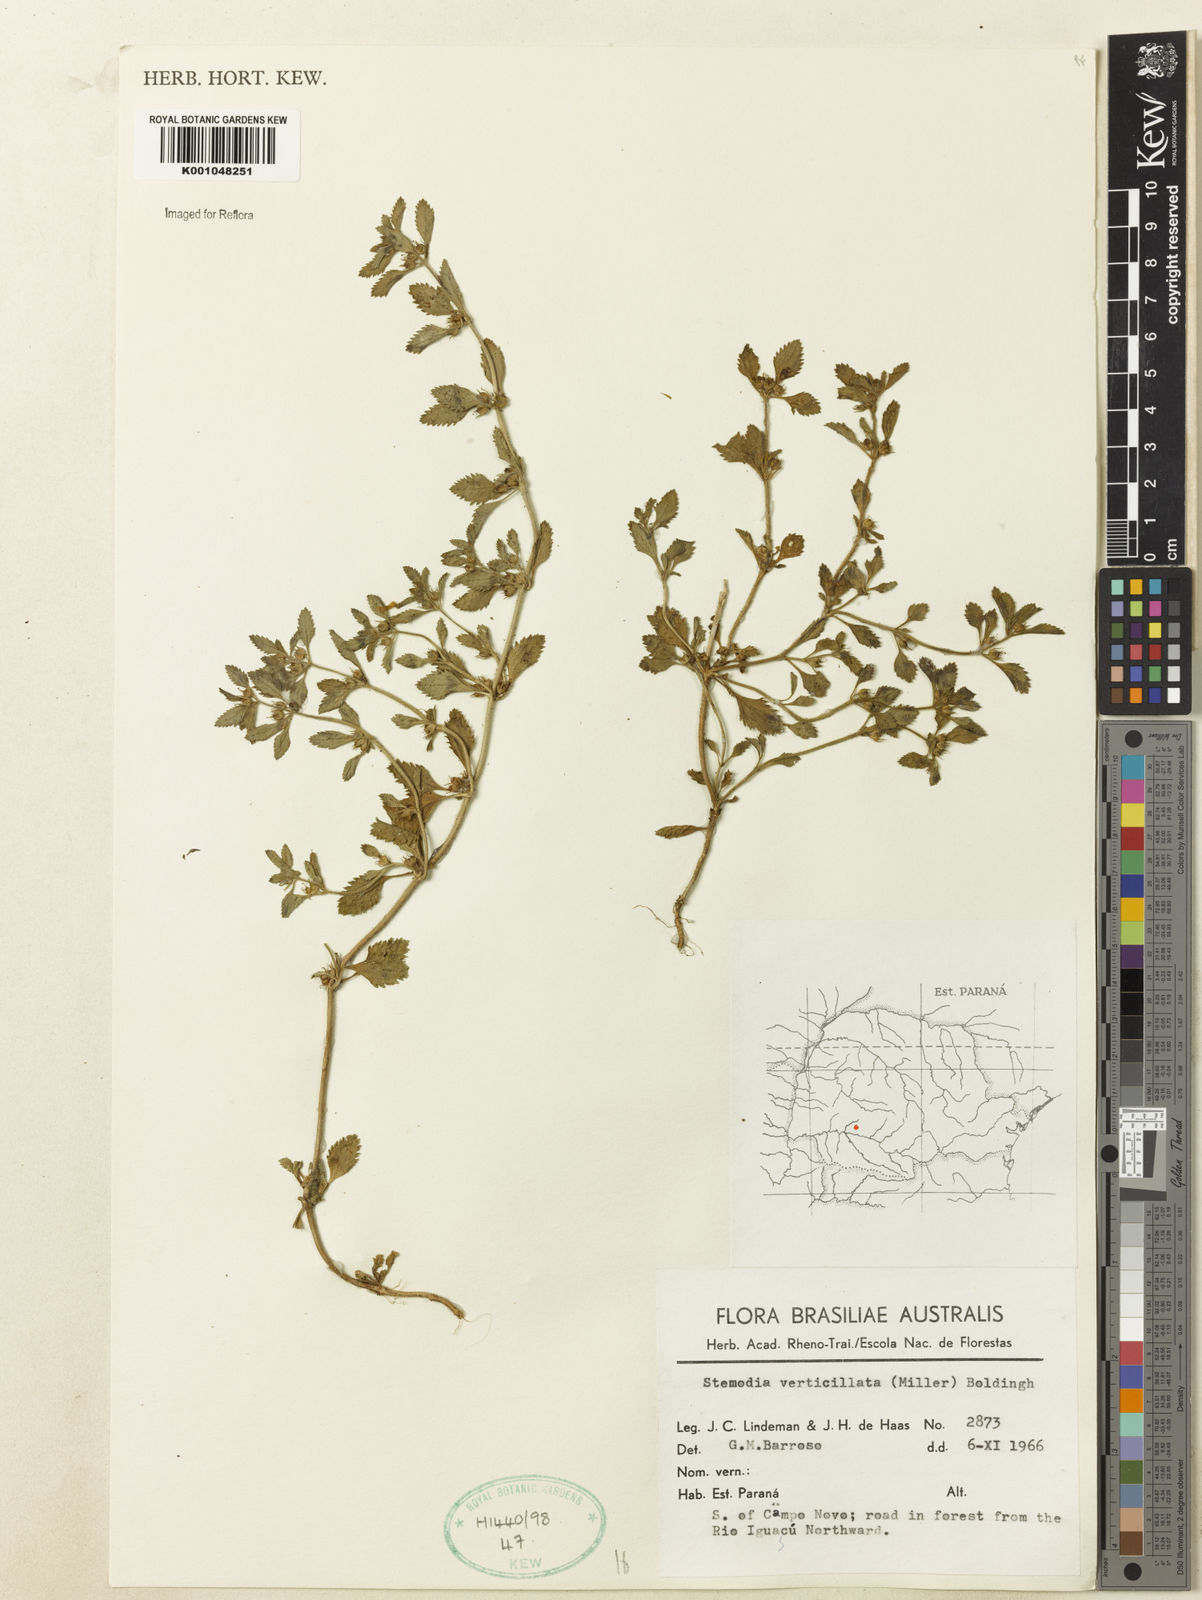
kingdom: Plantae
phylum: Tracheophyta
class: Magnoliopsida
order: Lamiales
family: Plantaginaceae
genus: Stemodia
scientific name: Stemodia verticillata
